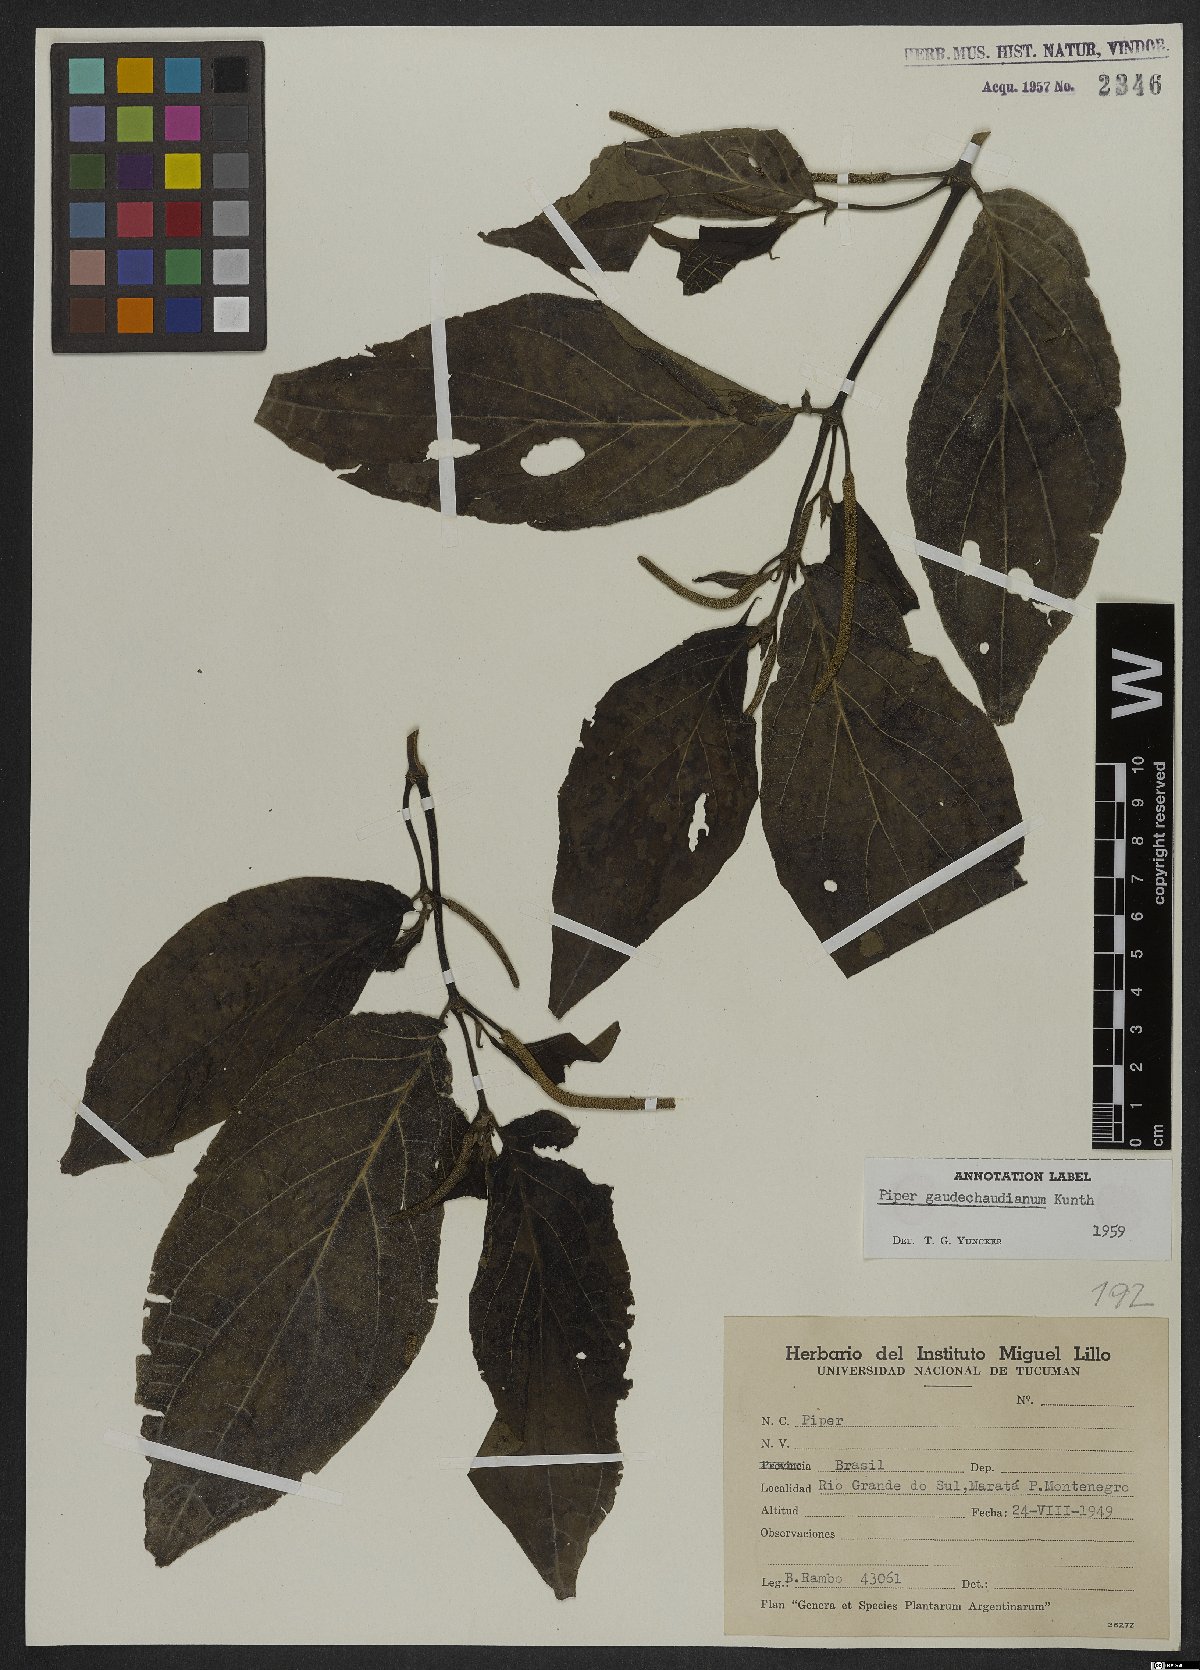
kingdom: Plantae
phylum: Tracheophyta
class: Magnoliopsida
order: Piperales
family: Piperaceae
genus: Piper
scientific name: Piper gaudichaudianum
